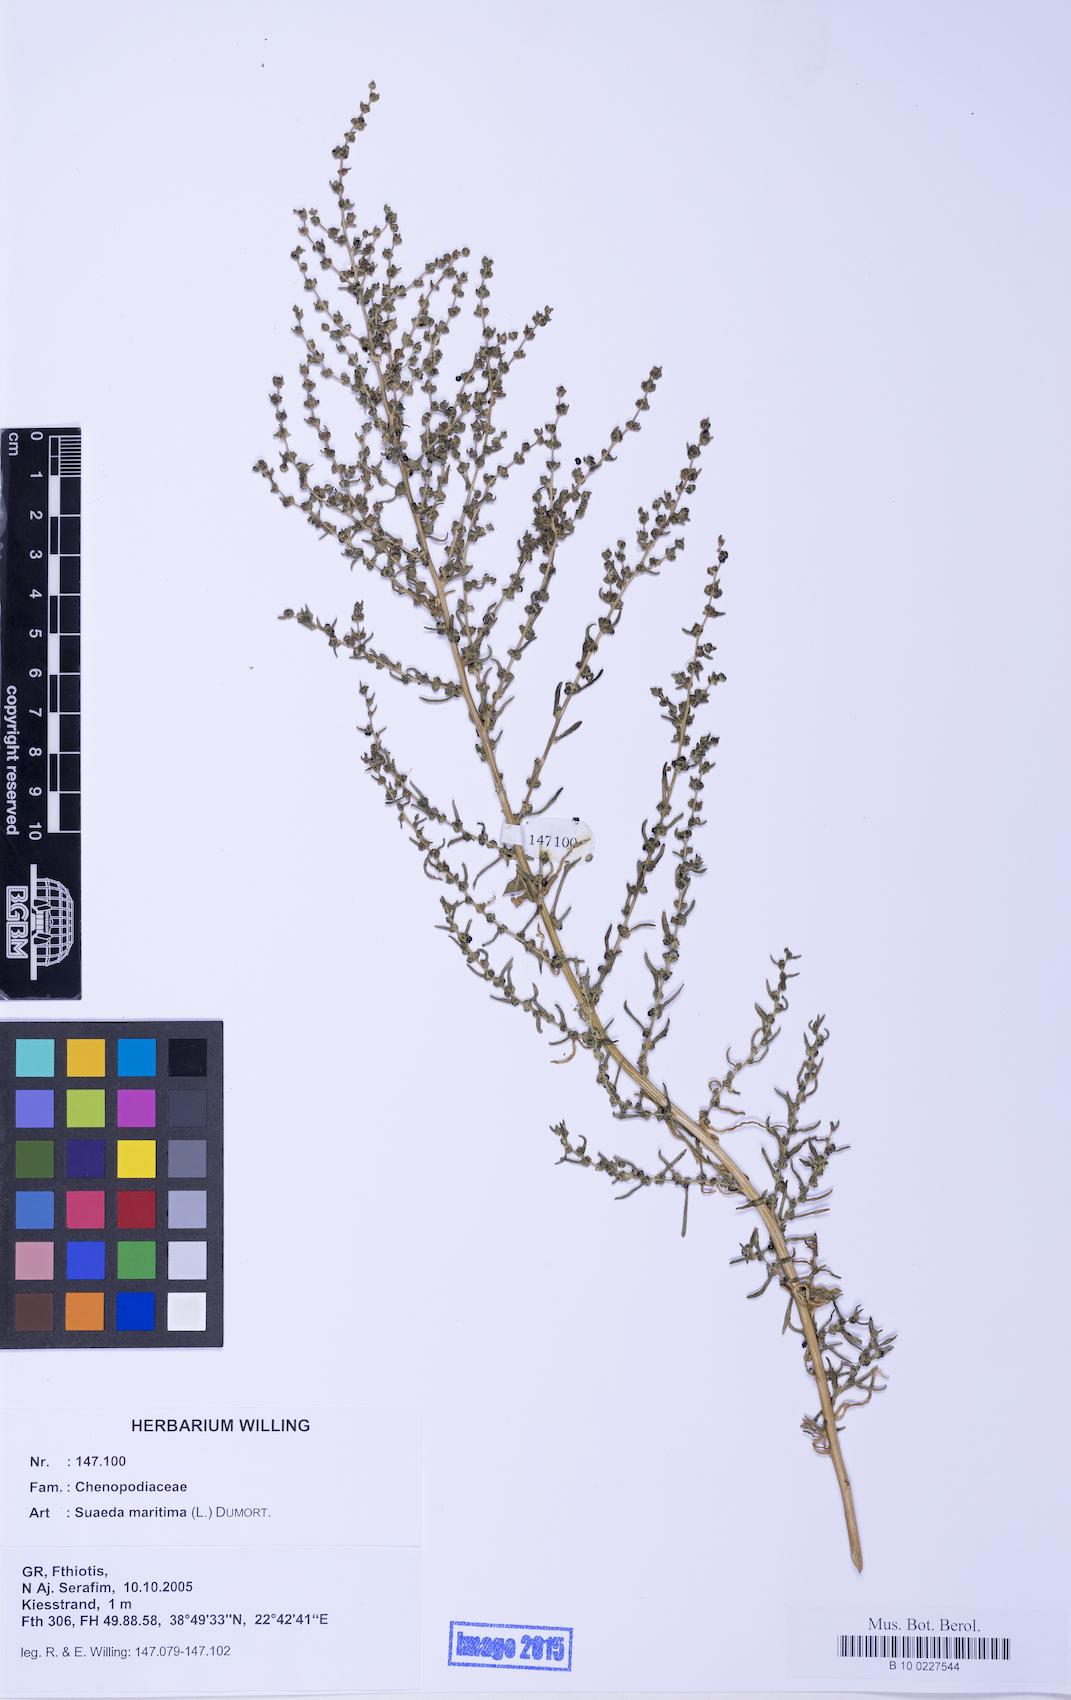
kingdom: Plantae
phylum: Tracheophyta
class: Magnoliopsida
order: Caryophyllales
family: Amaranthaceae
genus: Suaeda
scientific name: Suaeda maritima
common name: Annual sea-blite
